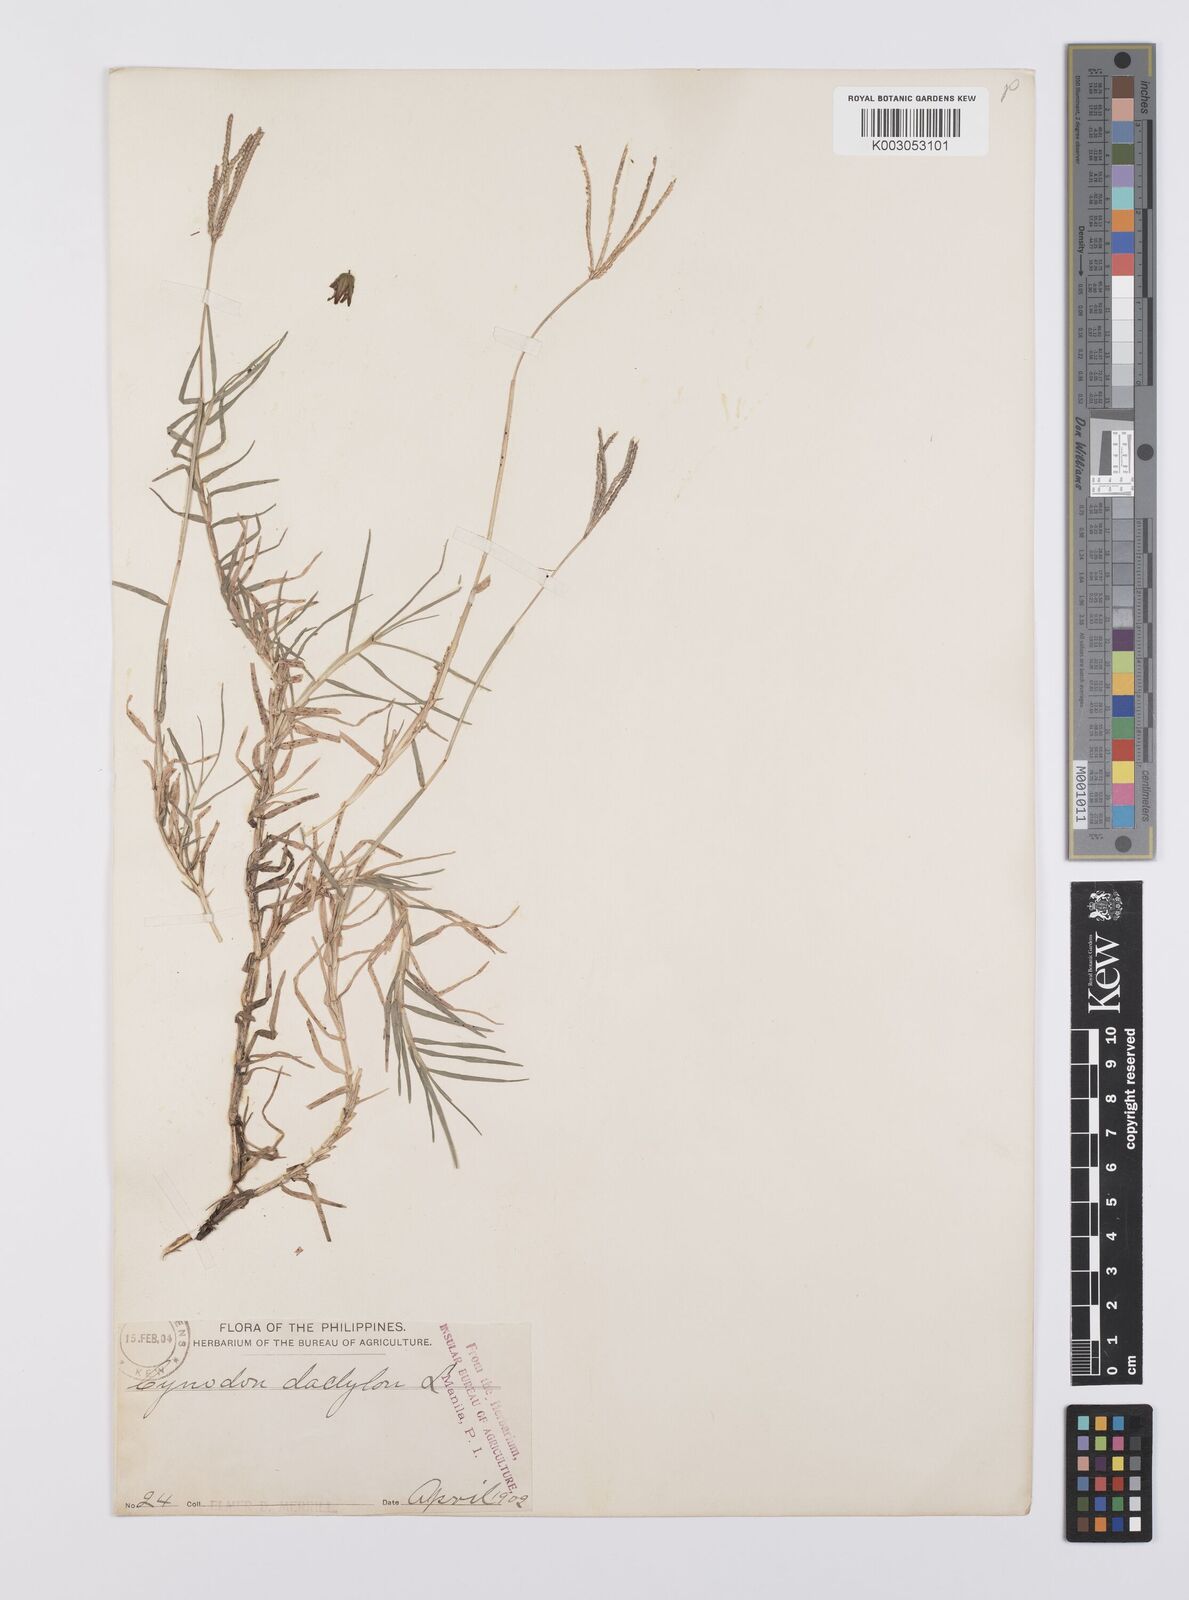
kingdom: Plantae
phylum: Tracheophyta
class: Liliopsida
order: Poales
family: Poaceae
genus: Cynodon
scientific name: Cynodon dactylon
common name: Bermuda grass
